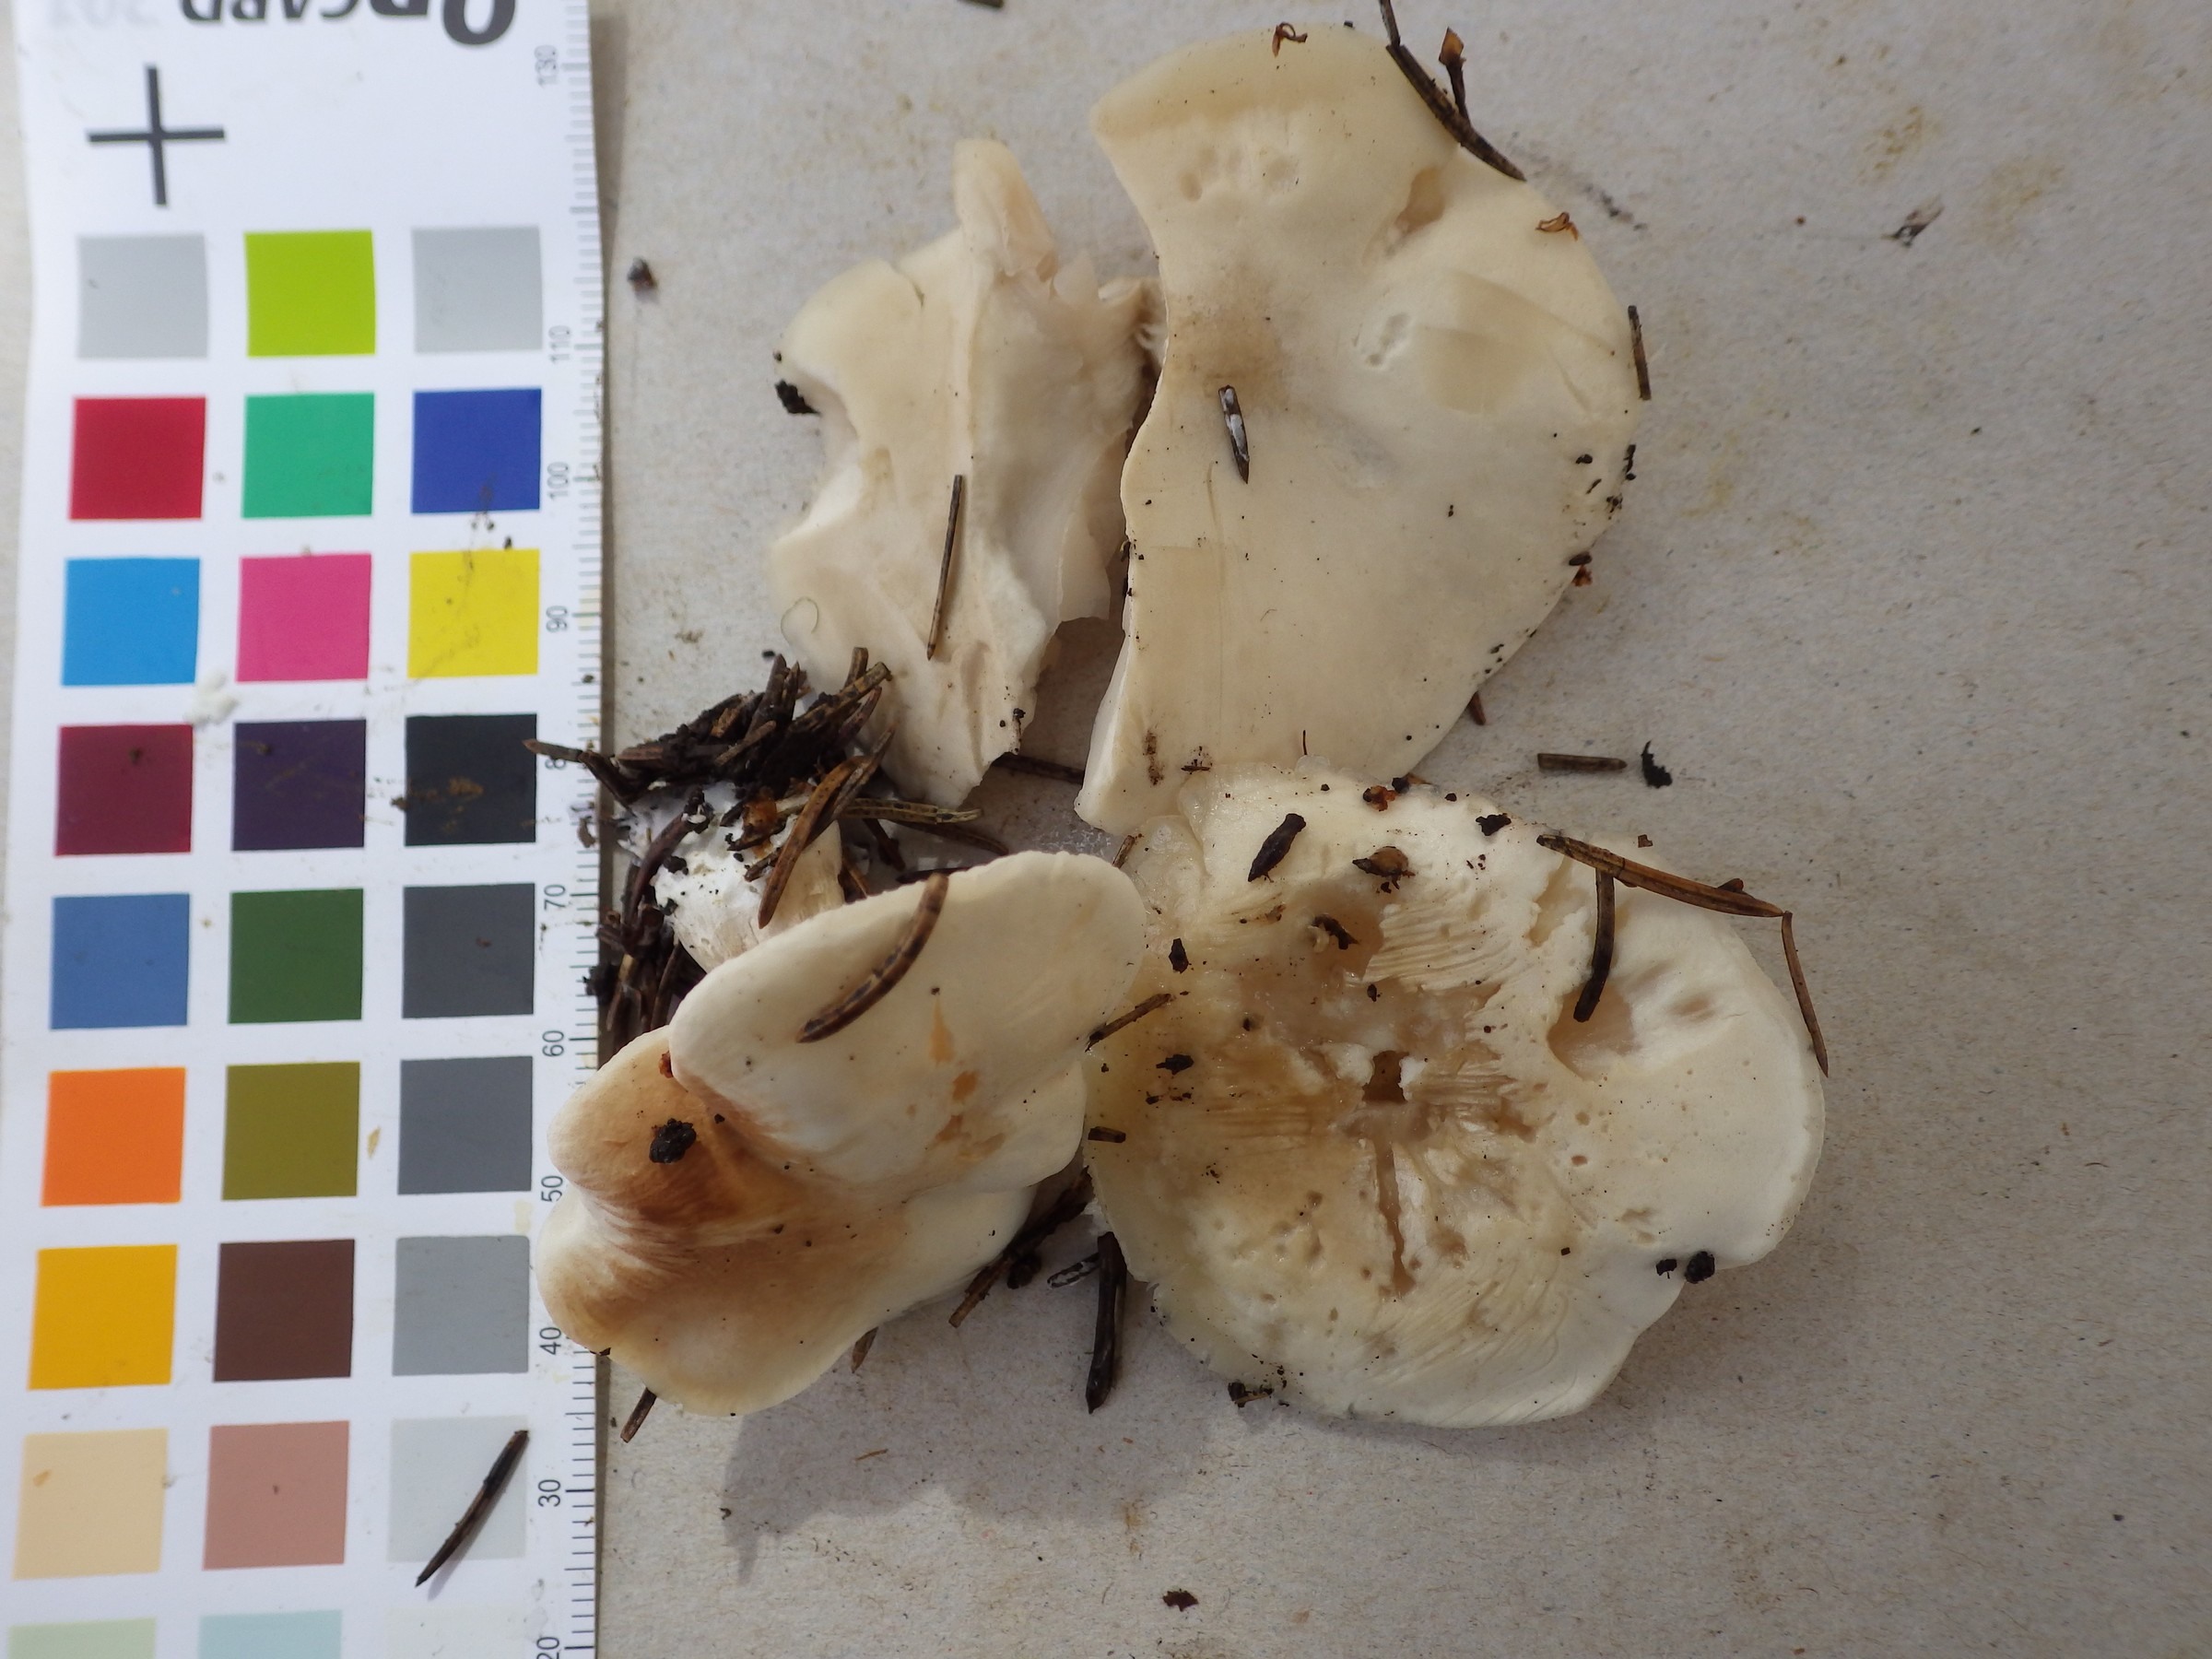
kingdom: Fungi
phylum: Basidiomycota
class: Agaricomycetes
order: Agaricales
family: Entolomataceae
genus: Clitopilus
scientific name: Clitopilus prunulus
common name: The miller
